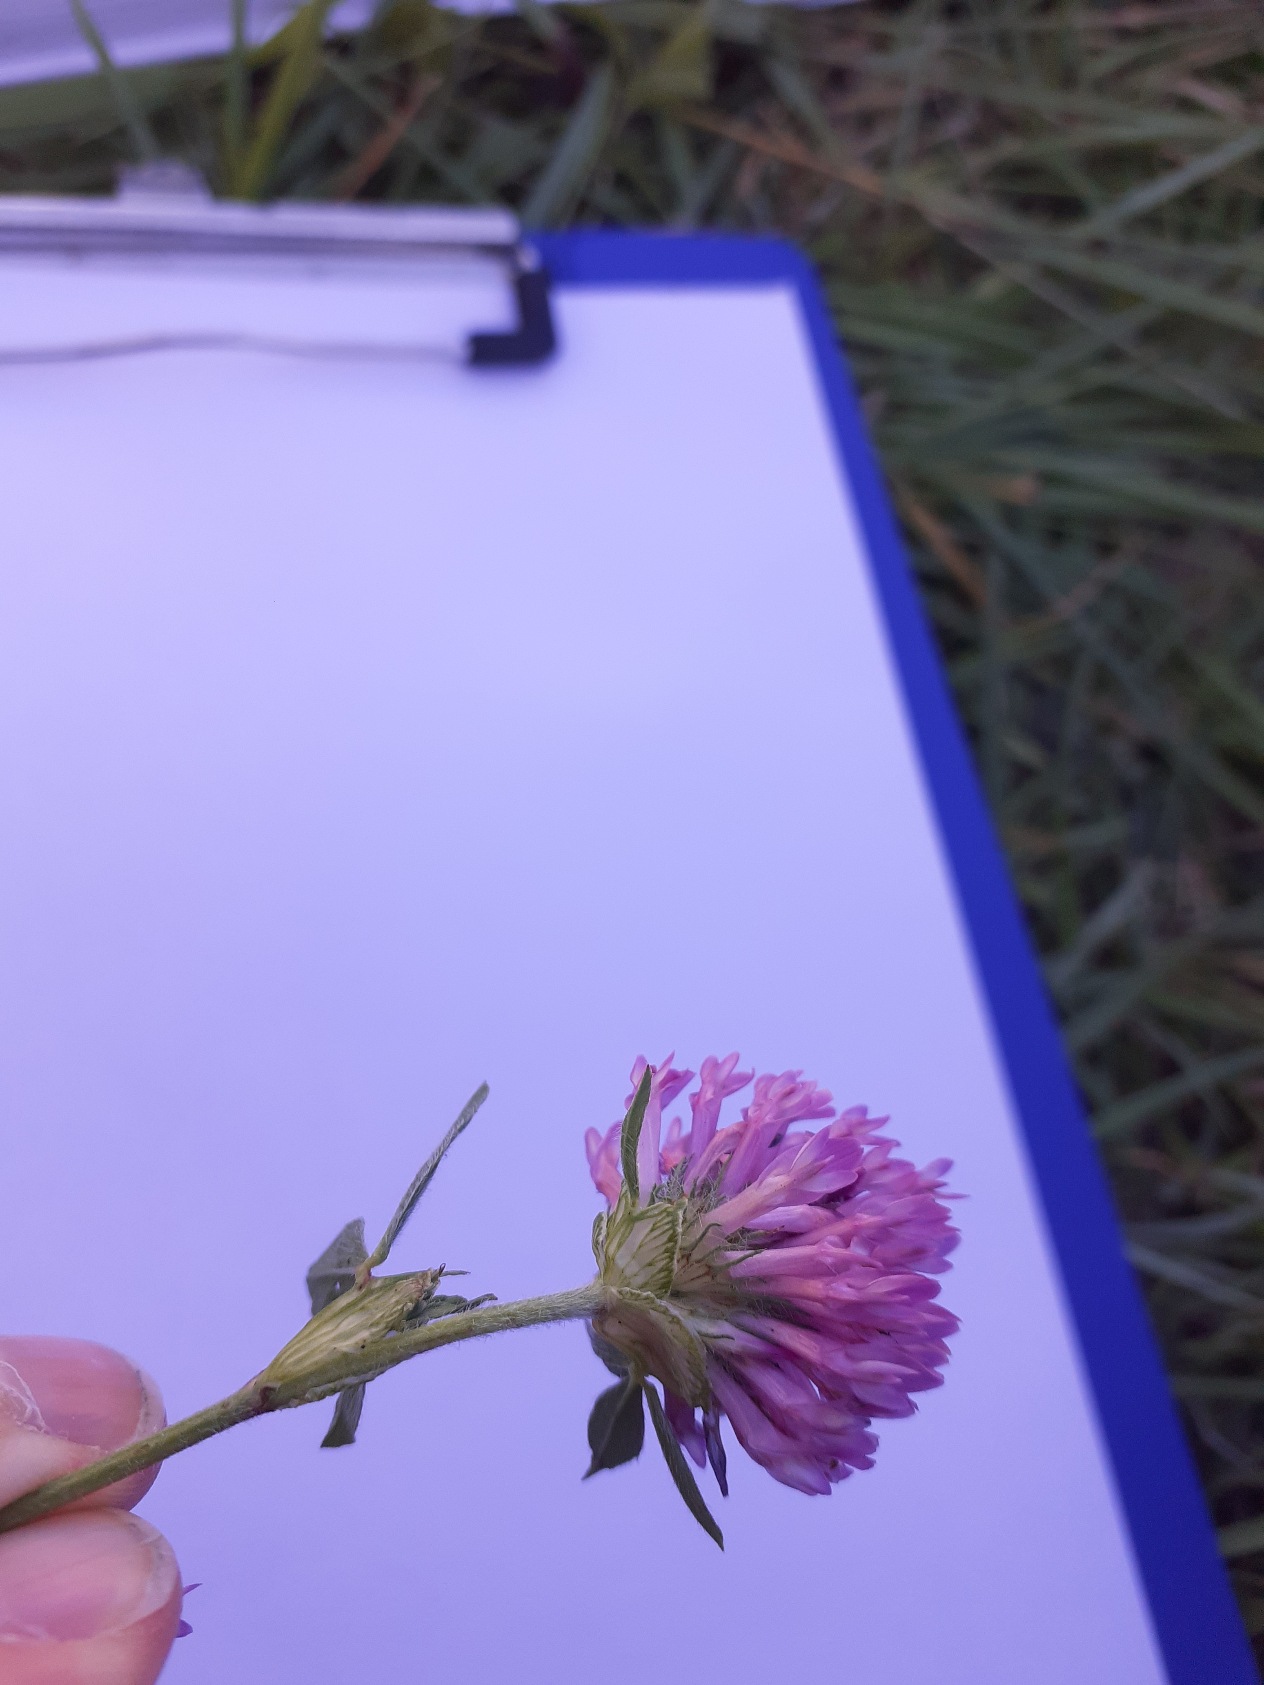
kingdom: Plantae
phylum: Tracheophyta
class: Magnoliopsida
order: Fabales
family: Fabaceae
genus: Trifolium
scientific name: Trifolium pratense
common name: Rød-kløver
